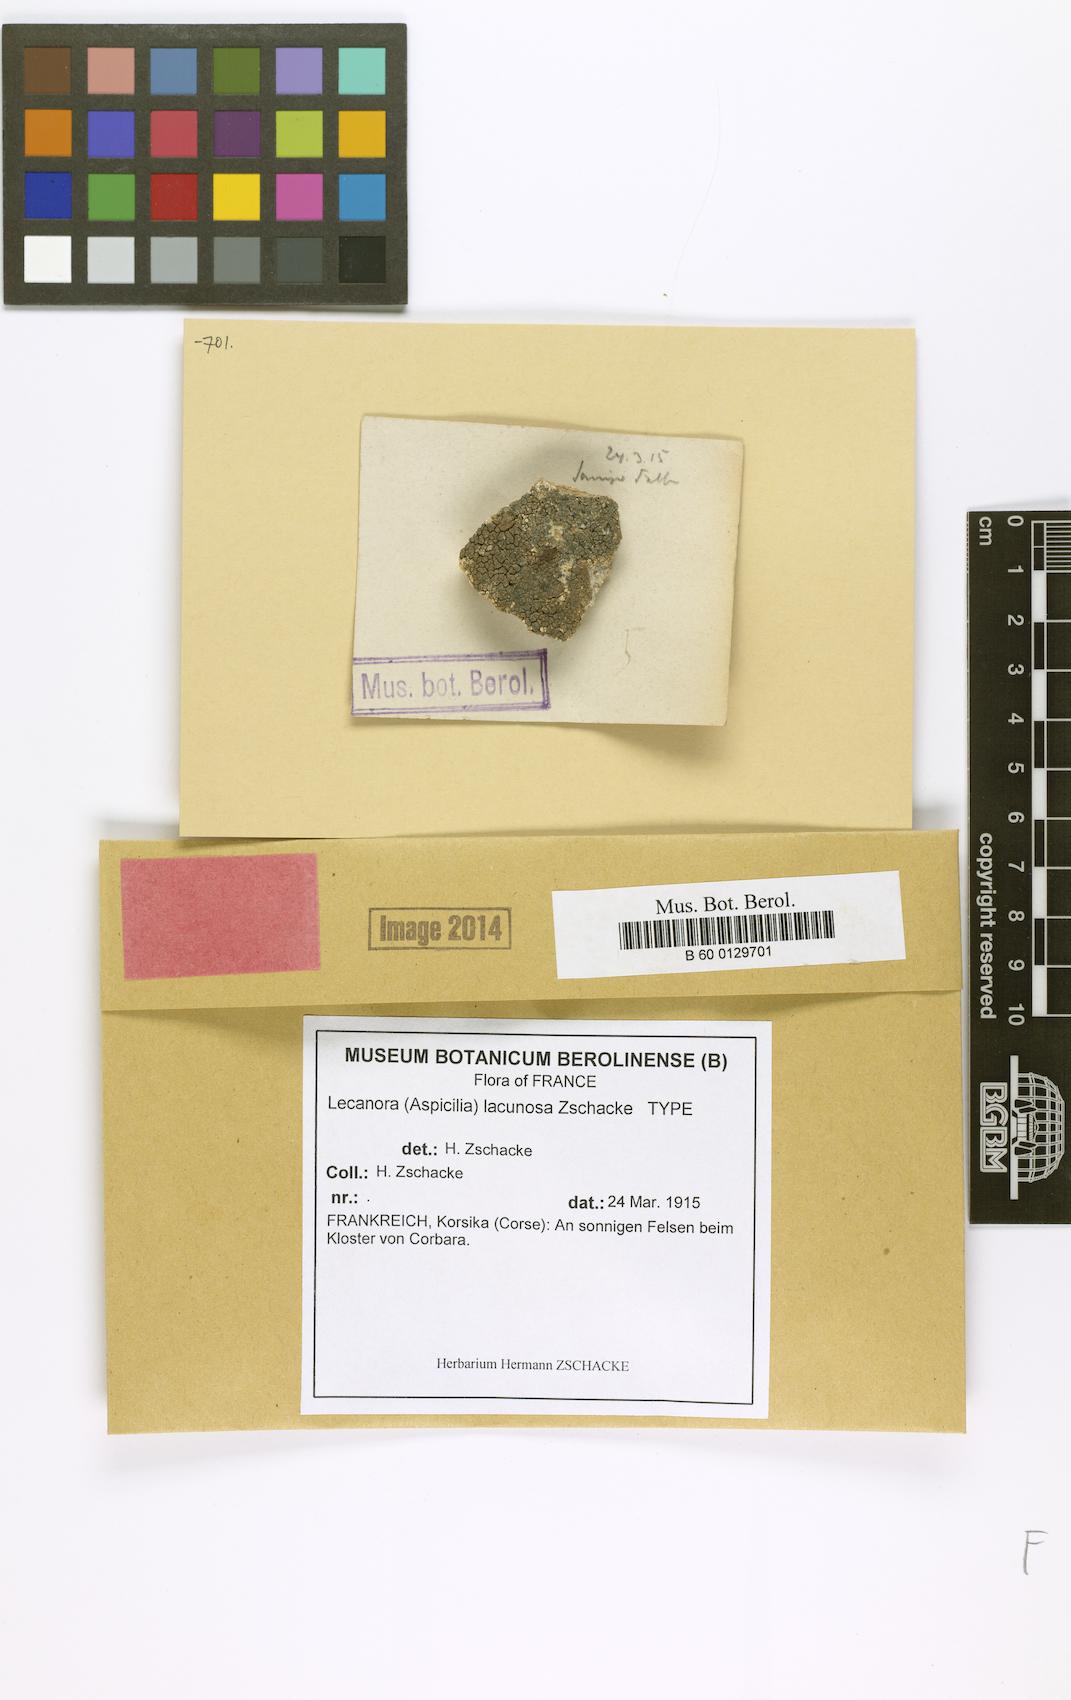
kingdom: Fungi
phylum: Ascomycota
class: Lecanoromycetes
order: Pertusariales
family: Megasporaceae
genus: Aspiciliella
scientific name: Aspiciliella cupreoglauca
